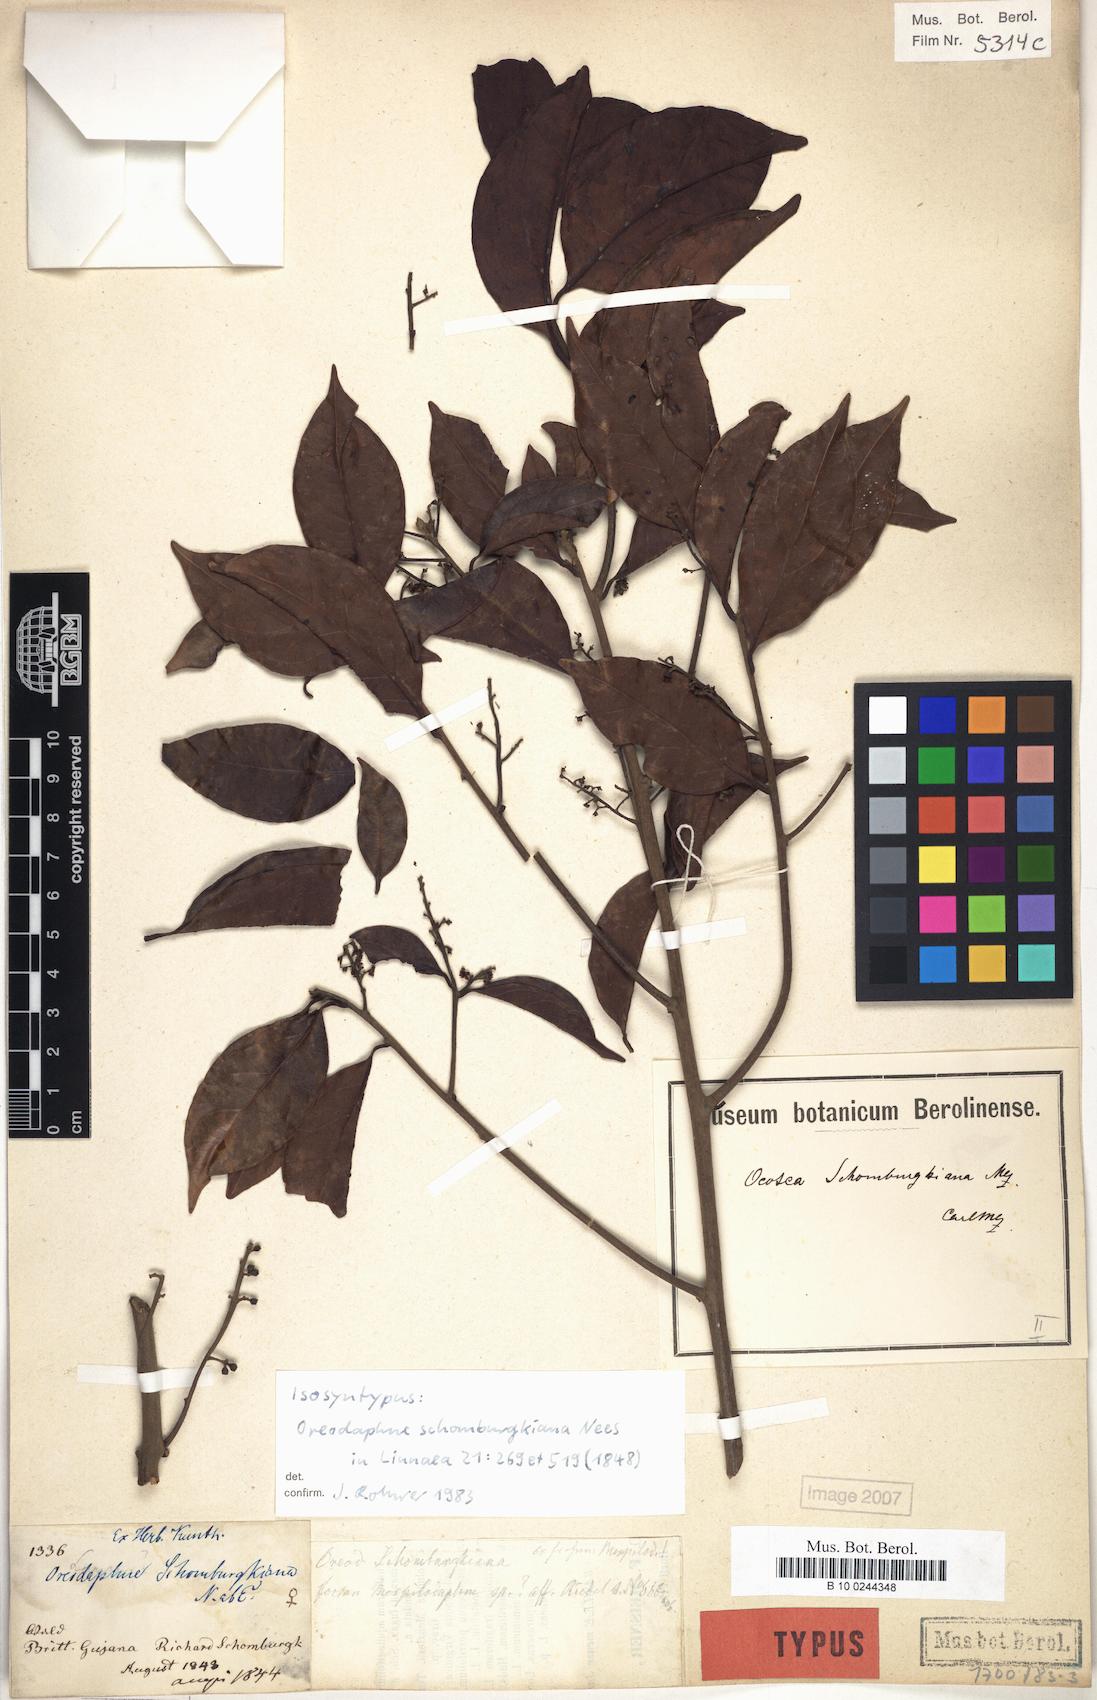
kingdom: Plantae
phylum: Tracheophyta
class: Magnoliopsida
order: Laurales
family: Lauraceae
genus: Ocotea
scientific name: Ocotea schomburgkiana
